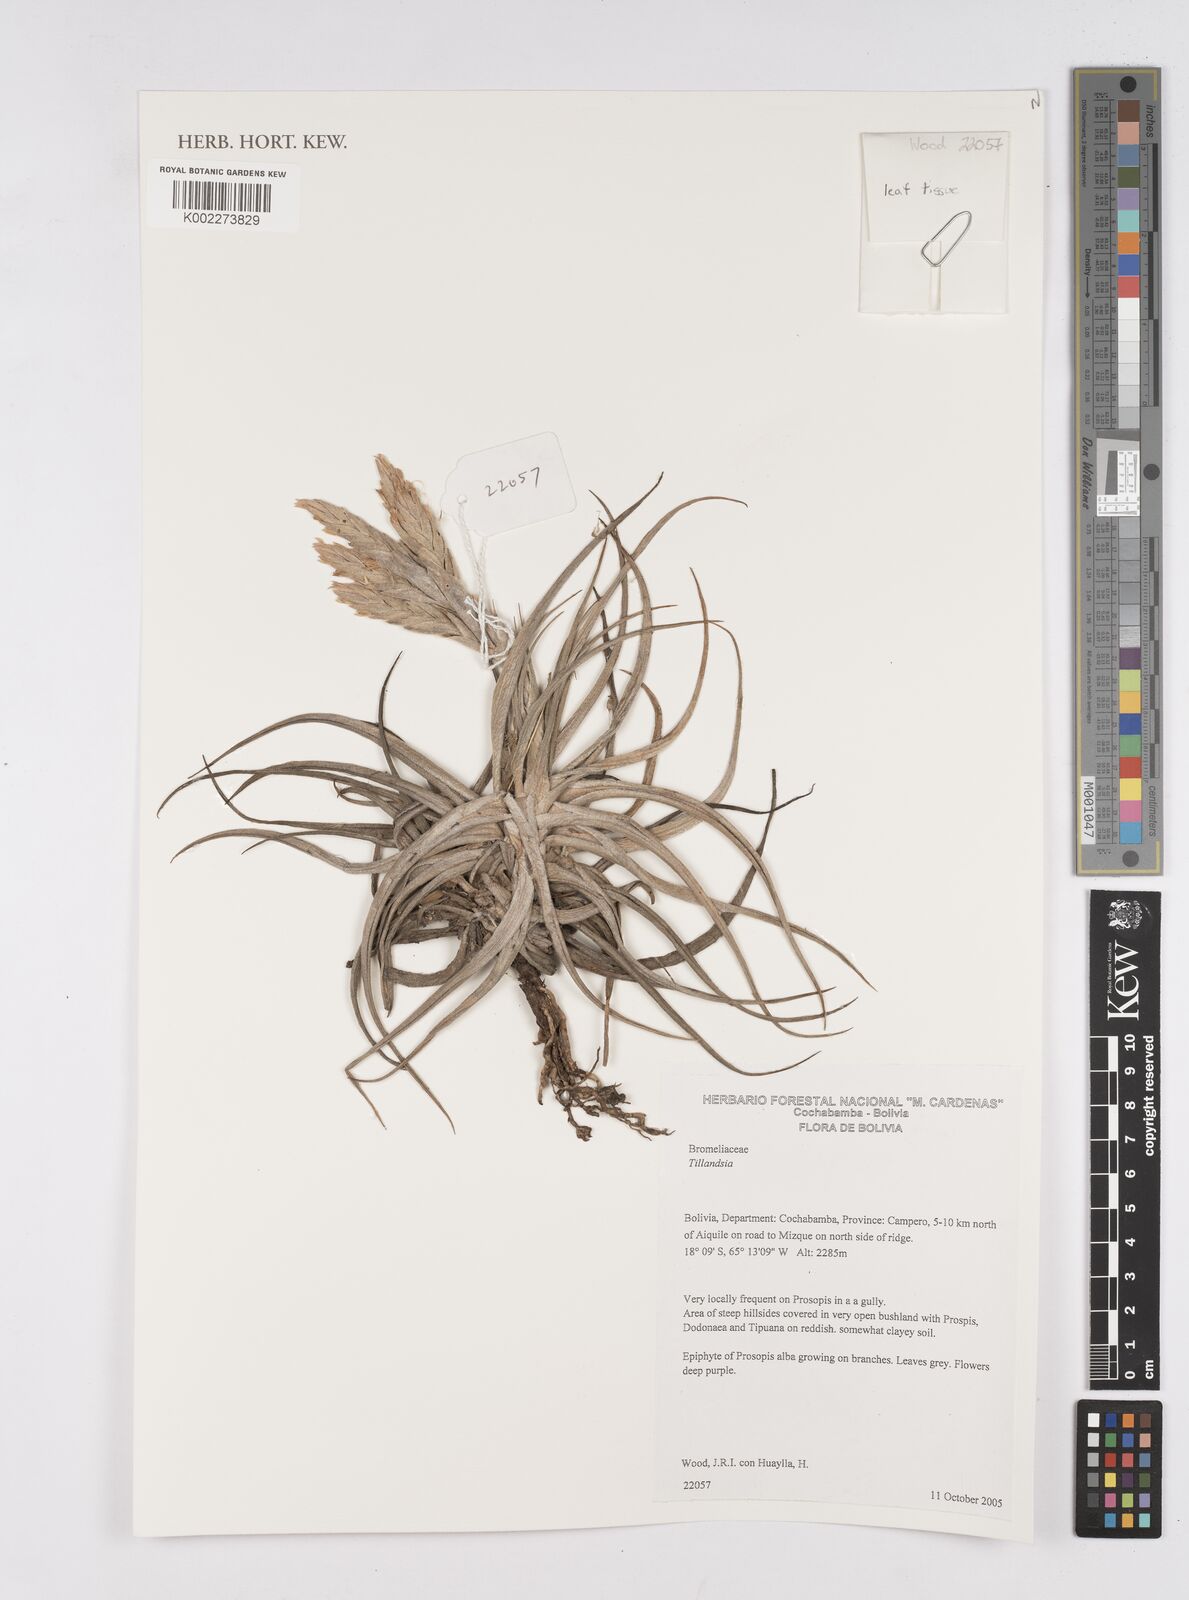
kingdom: Plantae
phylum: Tracheophyta
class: Liliopsida
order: Poales
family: Bromeliaceae
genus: Tillandsia
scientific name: Tillandsia
